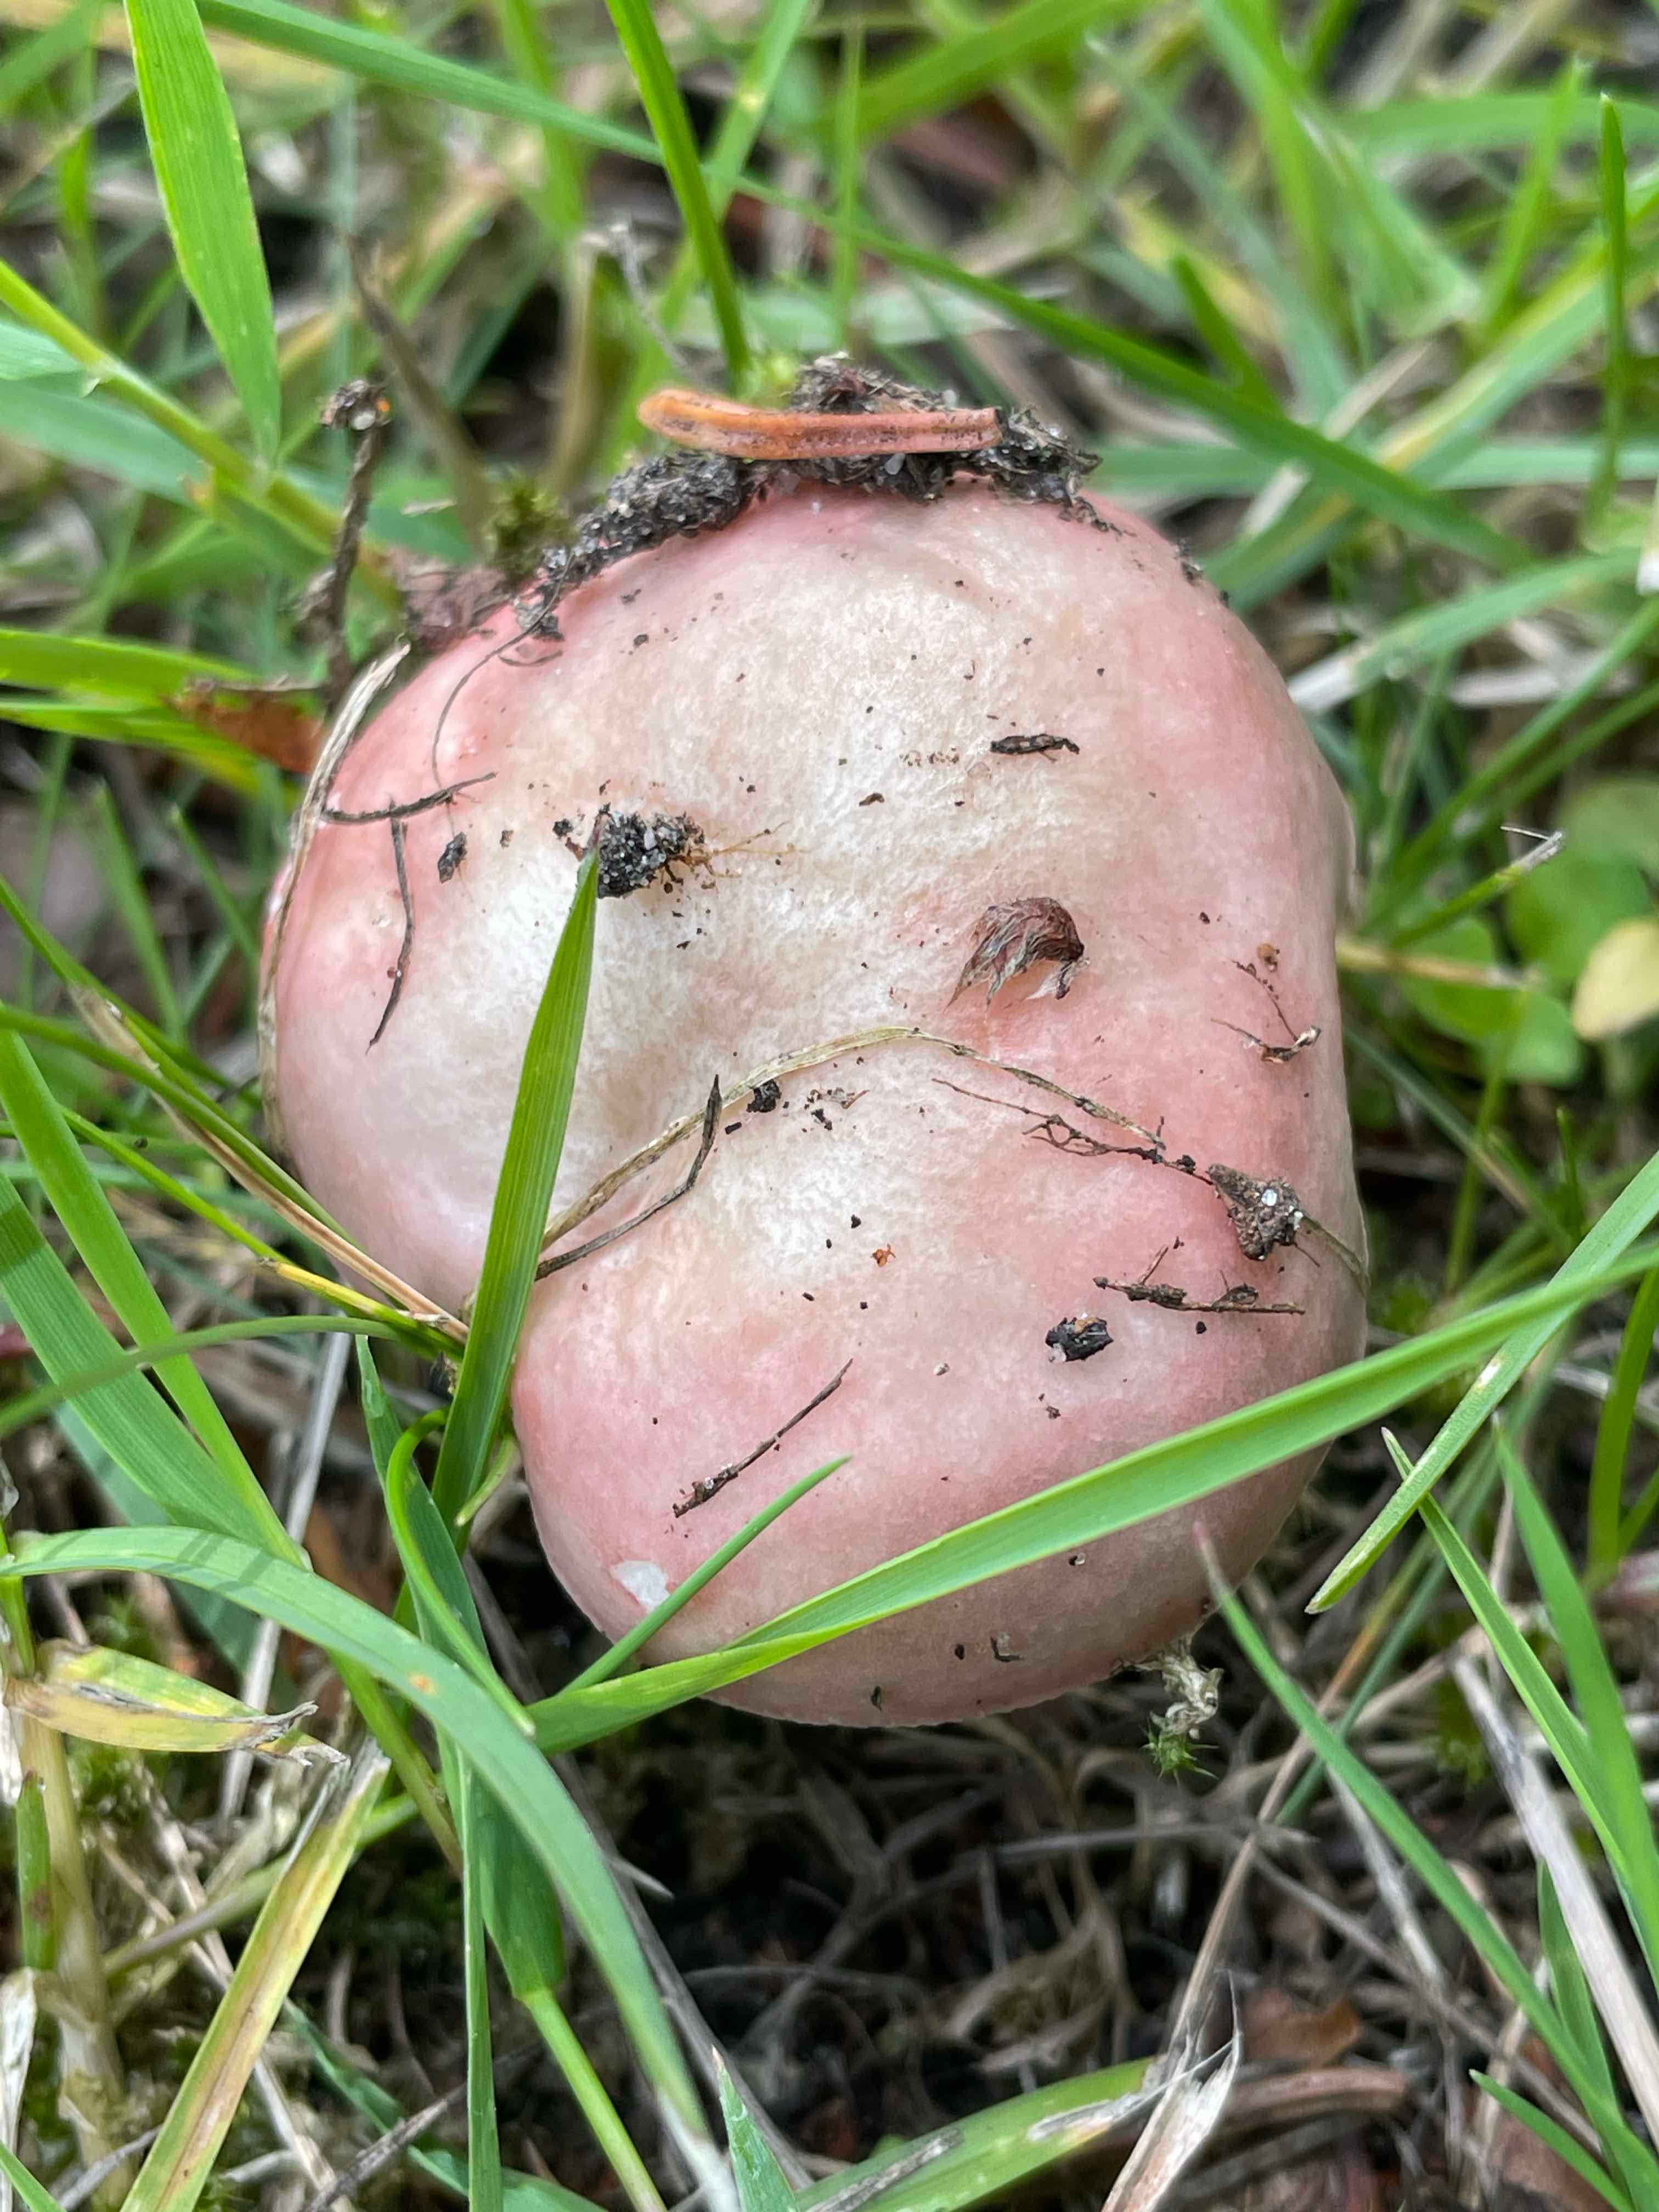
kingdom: Fungi
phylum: Basidiomycota
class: Agaricomycetes
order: Russulales
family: Russulaceae
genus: Russula
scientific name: Russula depallens
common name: falmende skørhat
